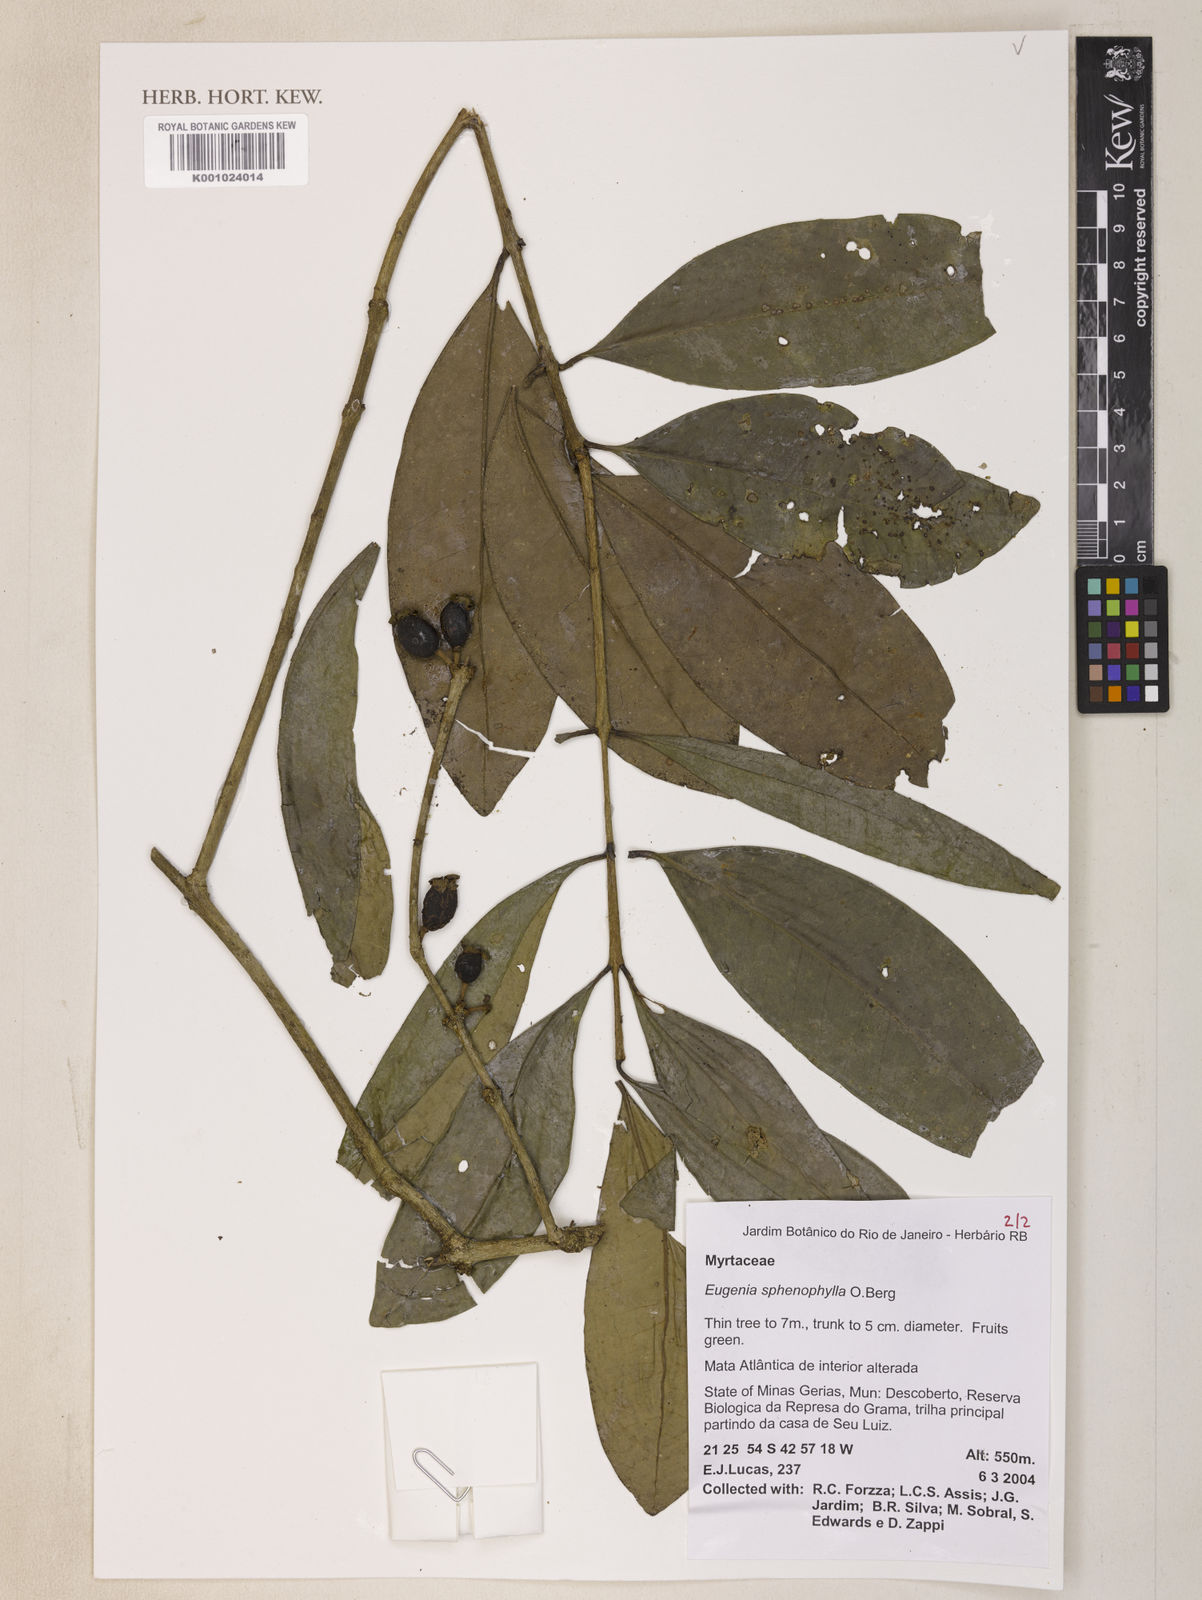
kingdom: Plantae
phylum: Tracheophyta
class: Magnoliopsida
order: Myrtales
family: Myrtaceae
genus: Eugenia
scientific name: Eugenia dodonaeifolia
